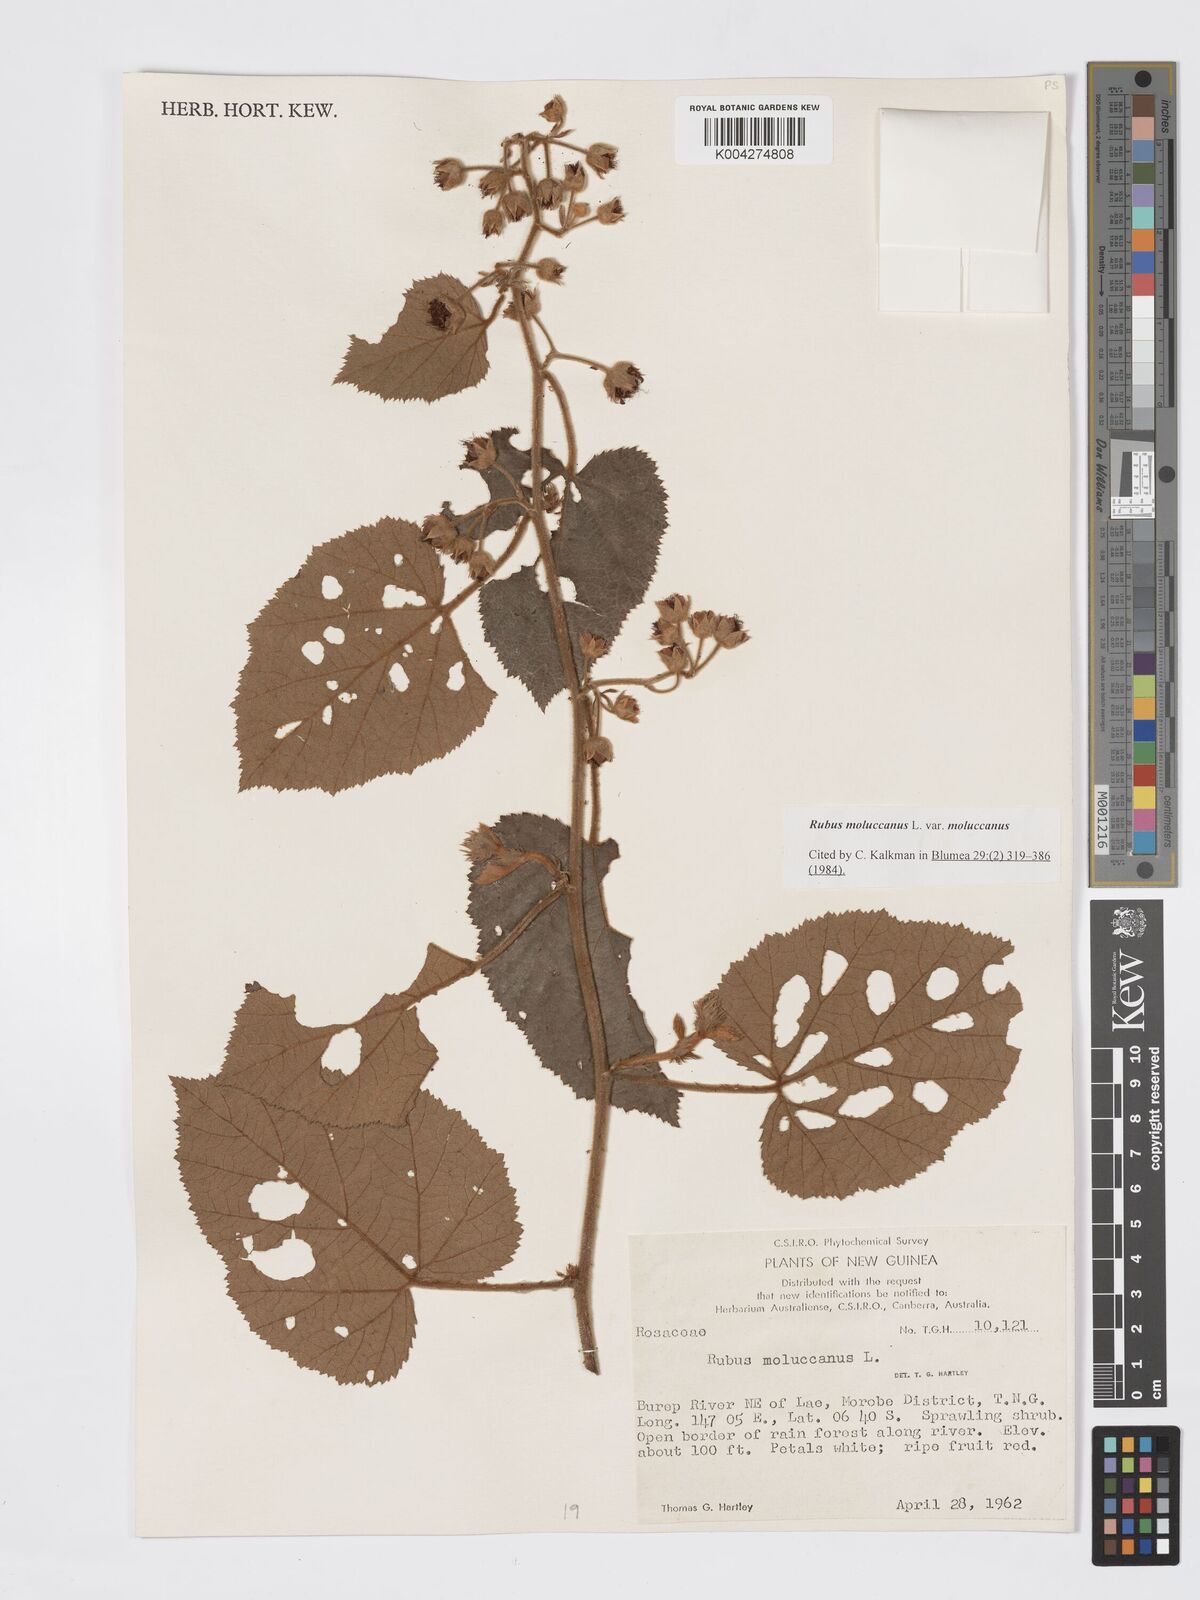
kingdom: Plantae
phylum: Tracheophyta
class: Magnoliopsida
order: Rosales
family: Rosaceae
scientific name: Rosaceae
